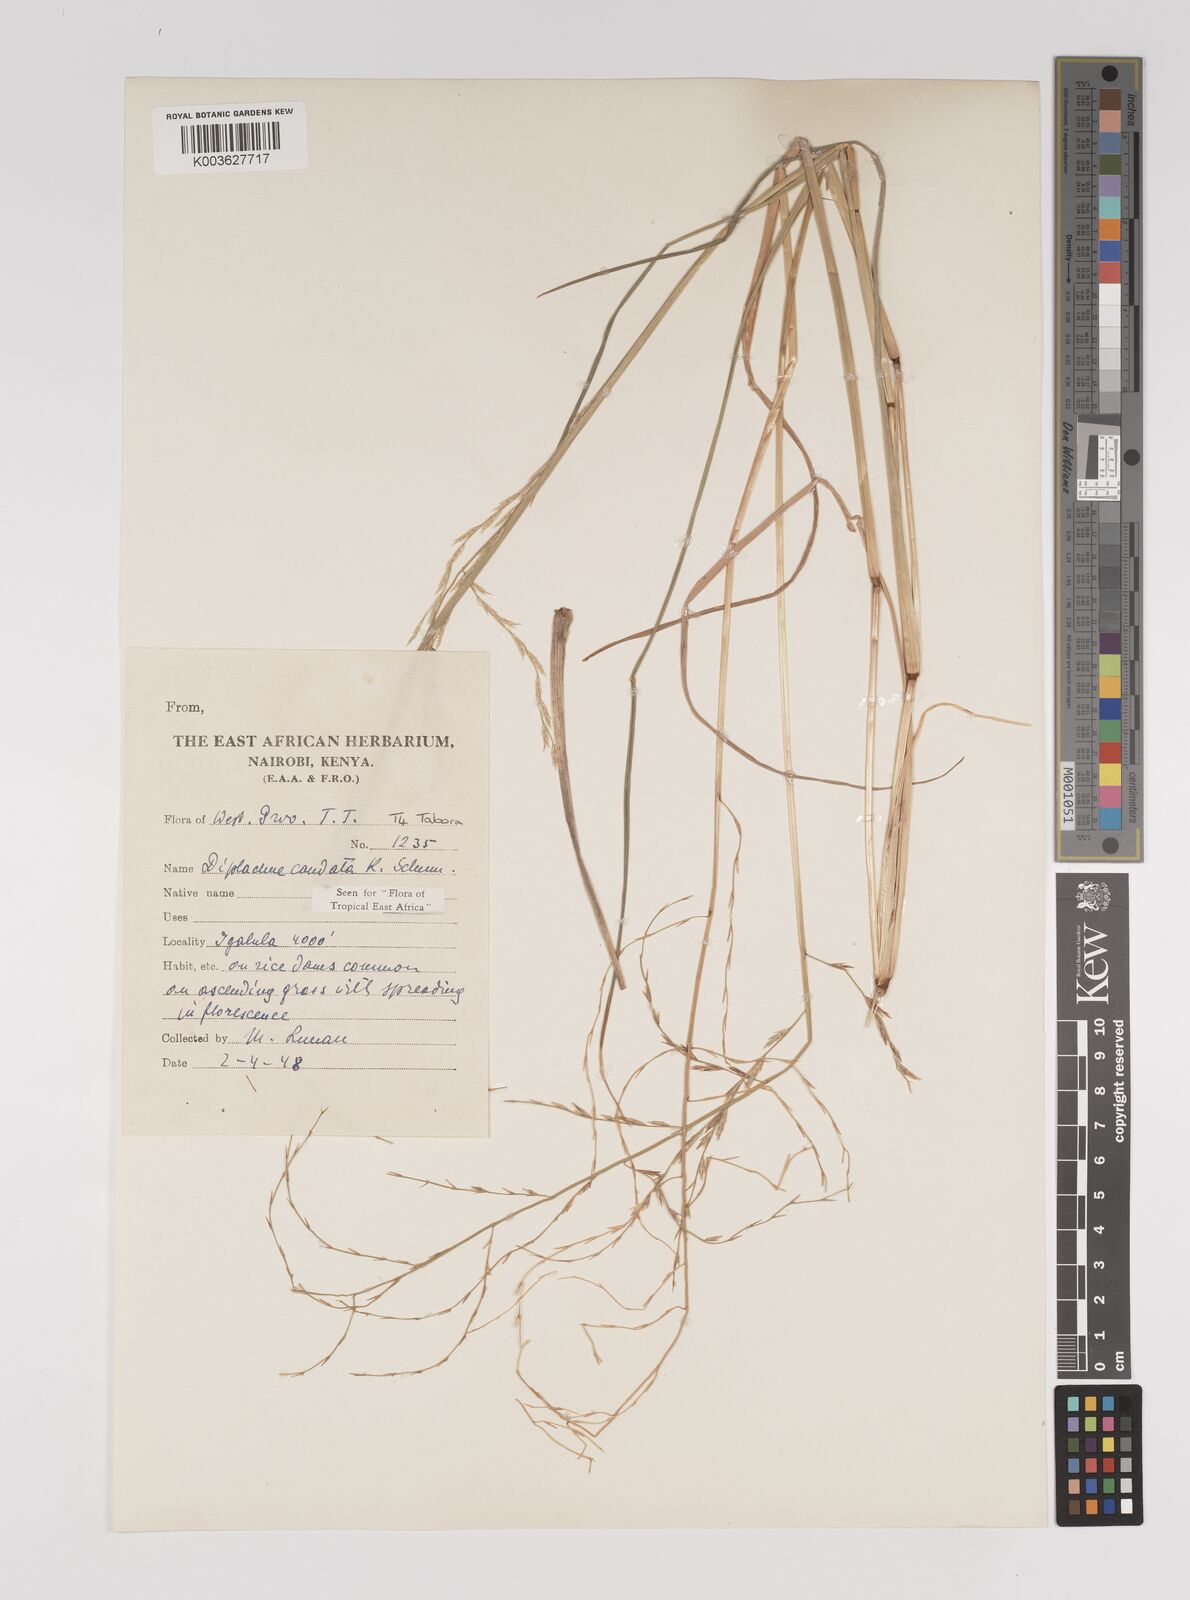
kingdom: Plantae
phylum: Tracheophyta
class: Liliopsida
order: Poales
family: Poaceae
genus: Leptochloa
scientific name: Leptochloa caudata
